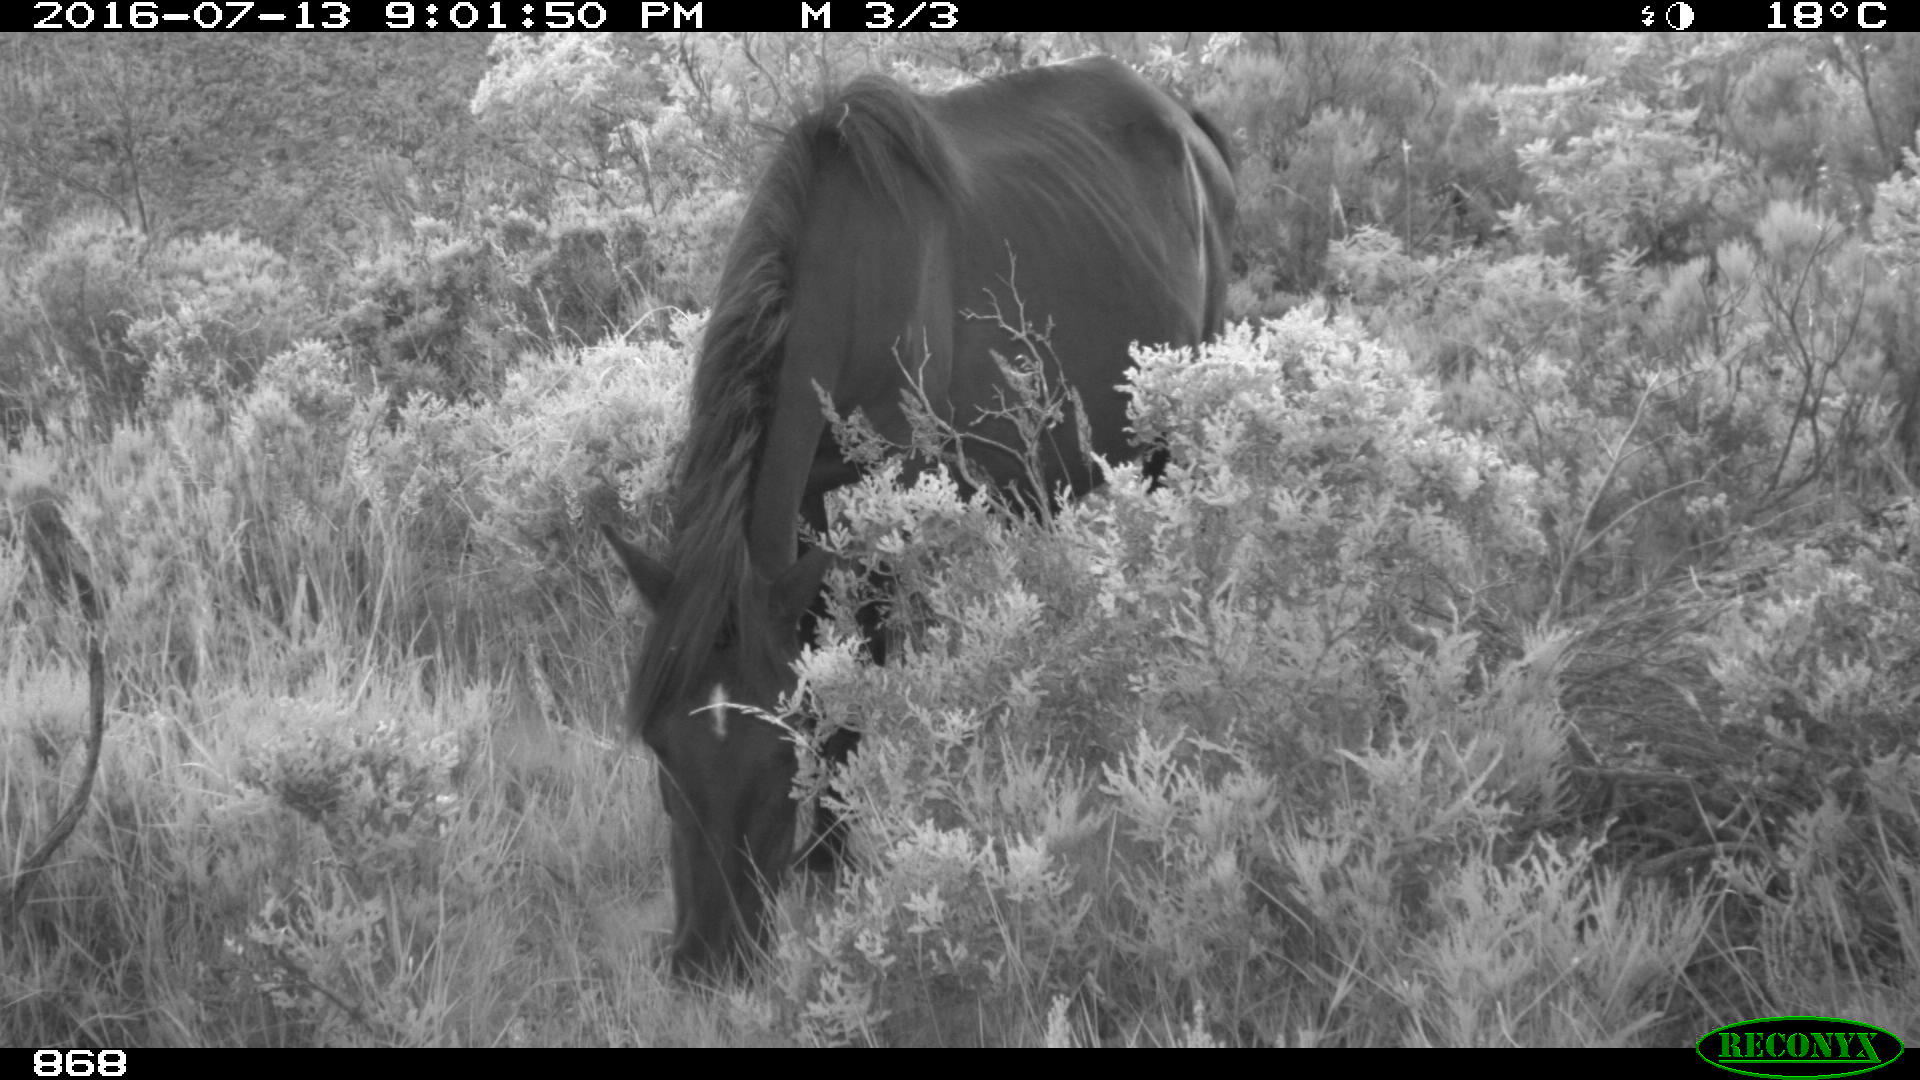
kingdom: Animalia
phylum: Chordata
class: Mammalia
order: Perissodactyla
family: Equidae
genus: Equus
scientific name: Equus caballus
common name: Horse
